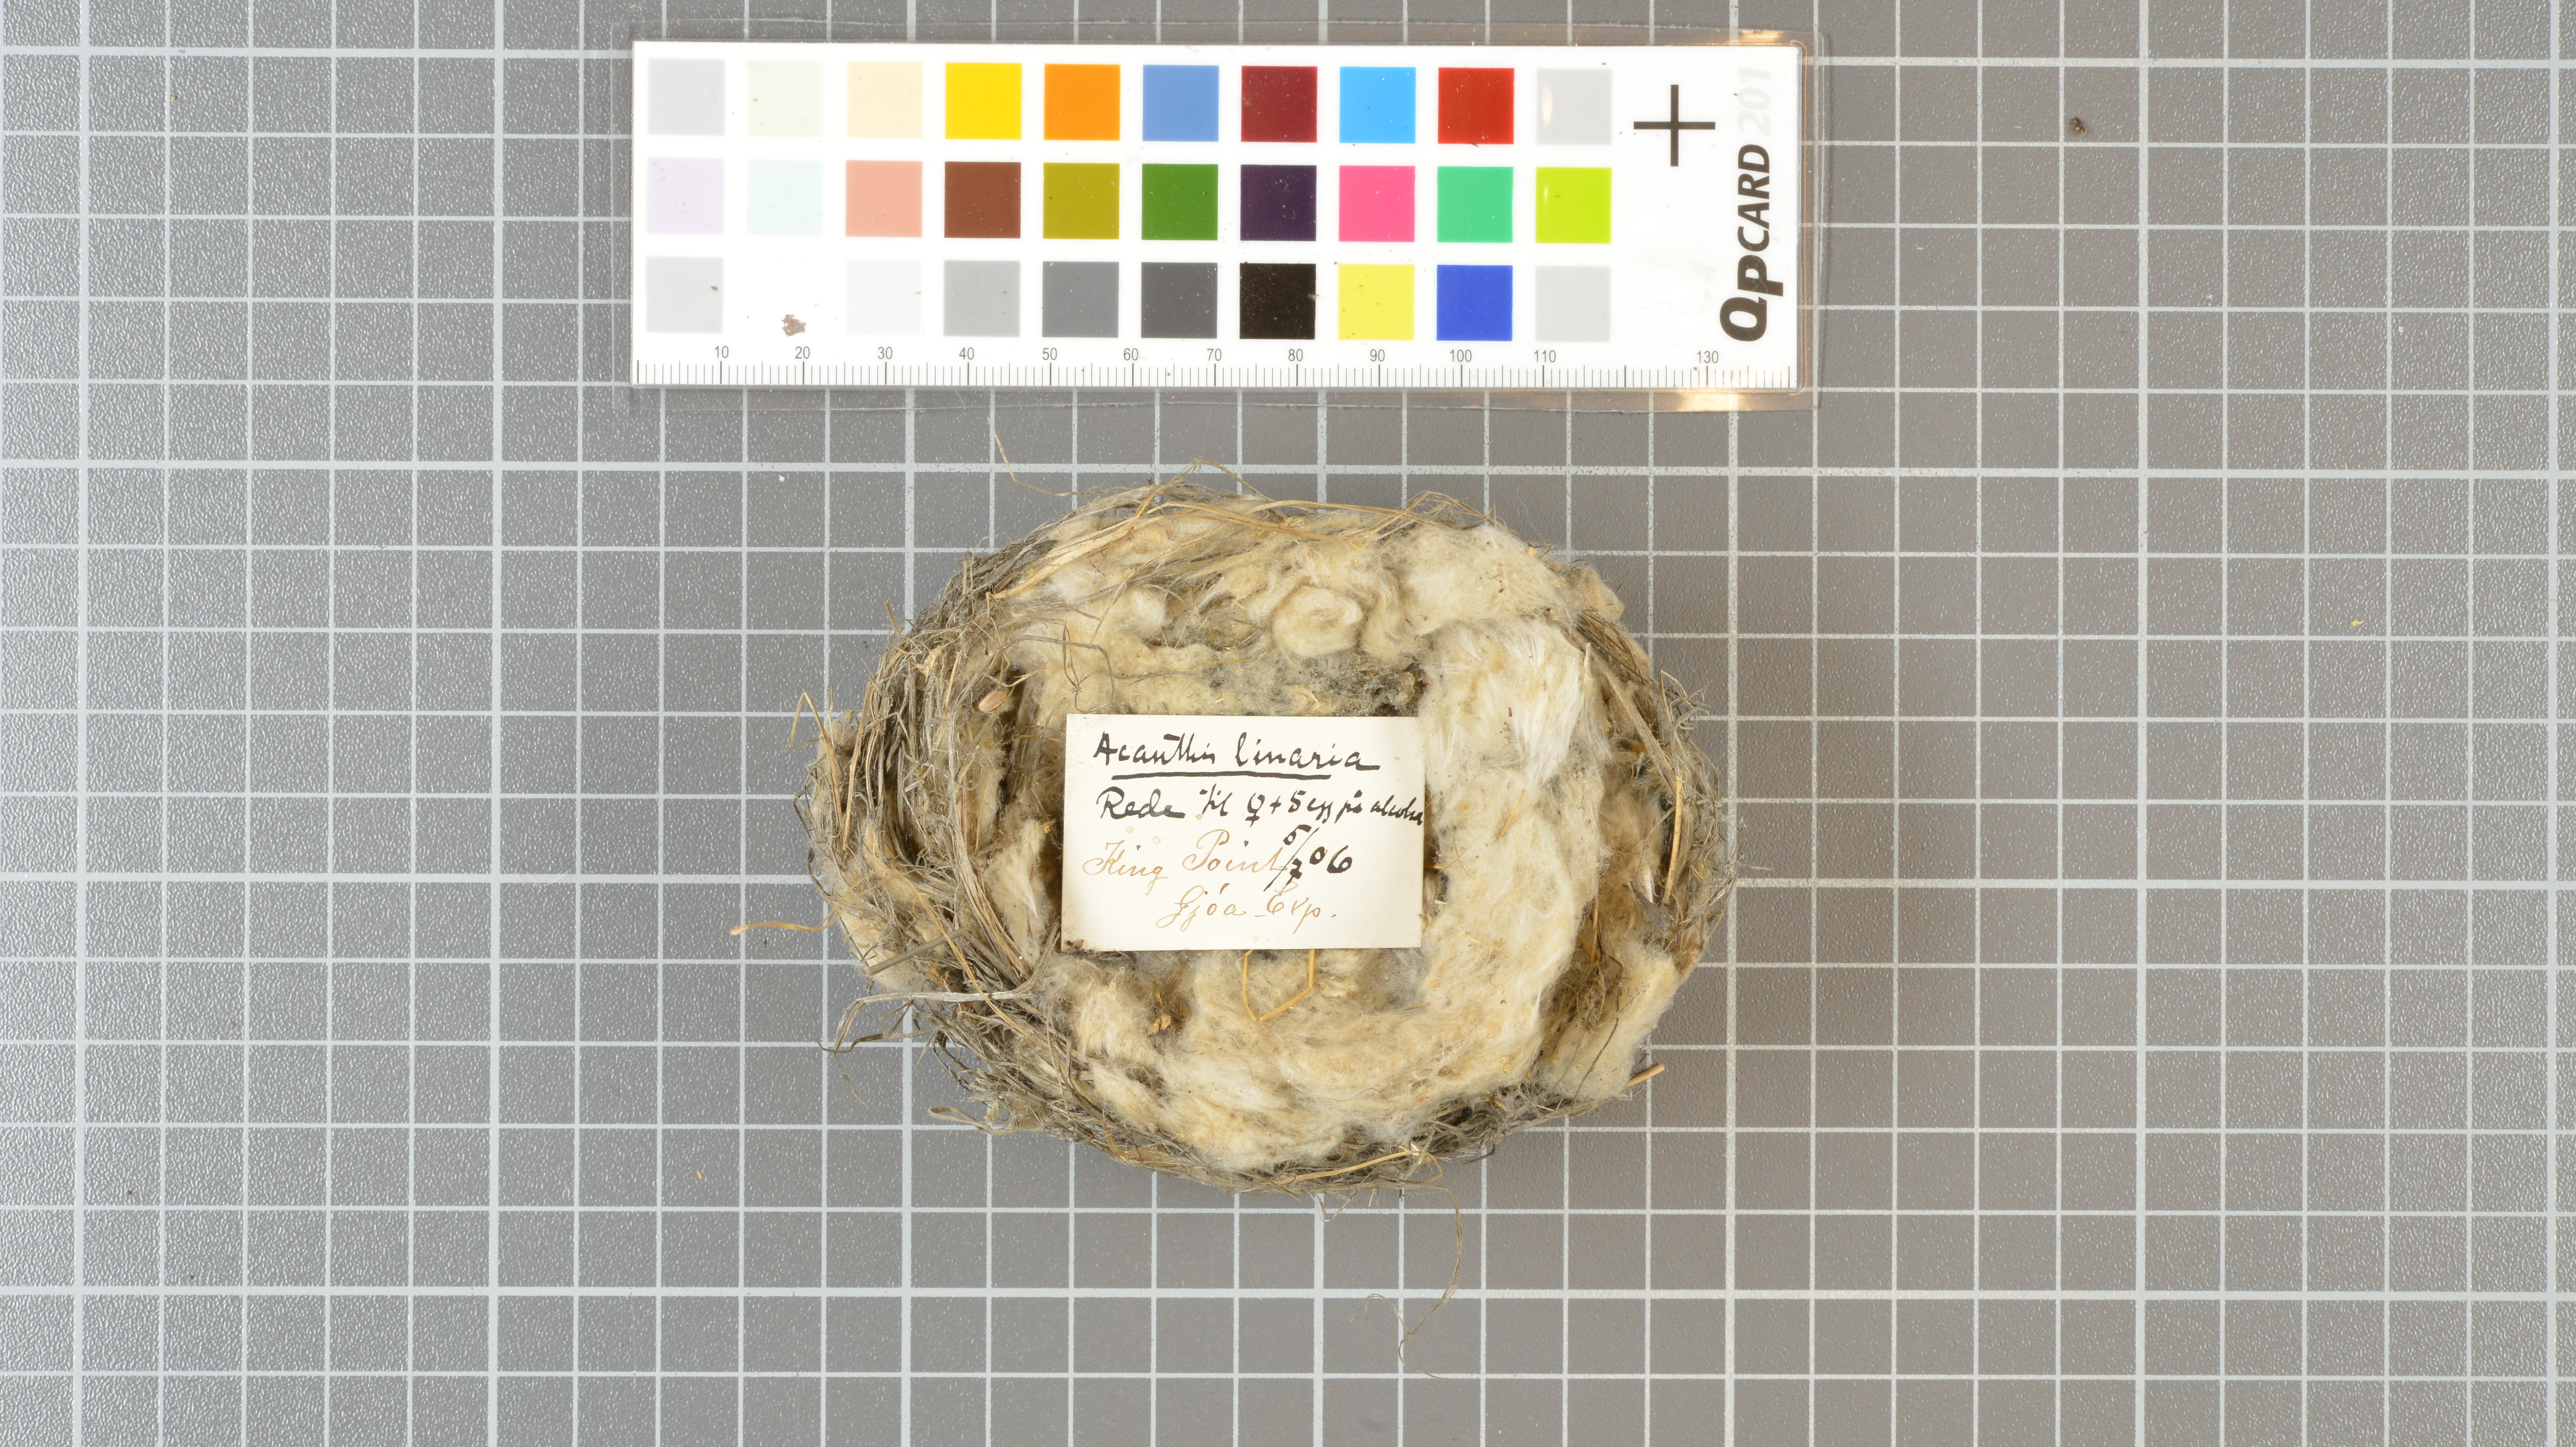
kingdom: Animalia
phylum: Chordata
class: Aves
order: Passeriformes
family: Fringillidae
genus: Acanthis
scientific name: Acanthis flammea
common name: Common redpoll
